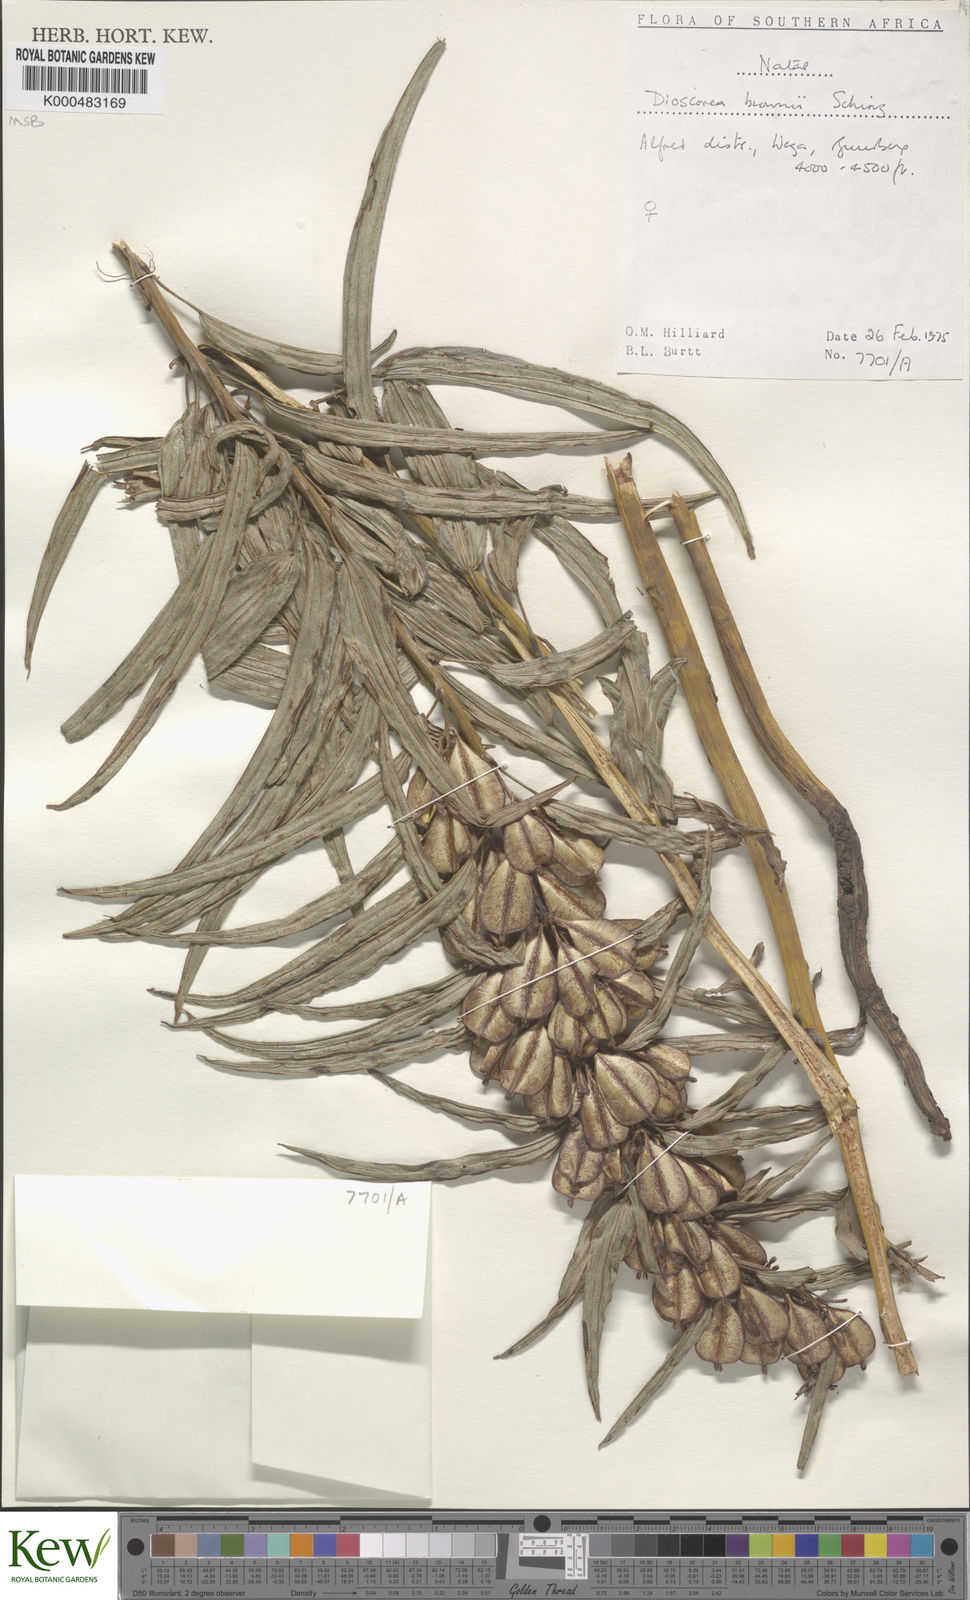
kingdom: Plantae
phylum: Tracheophyta
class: Liliopsida
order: Dioscoreales
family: Dioscoreaceae
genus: Dioscorea
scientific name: Dioscorea brownii
